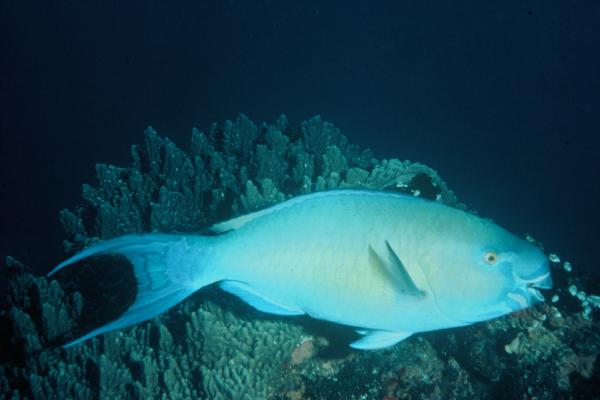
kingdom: Animalia
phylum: Chordata
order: Perciformes
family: Scaridae
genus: Scarus
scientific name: Scarus rubroviolaceus
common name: Ember parrotfish
